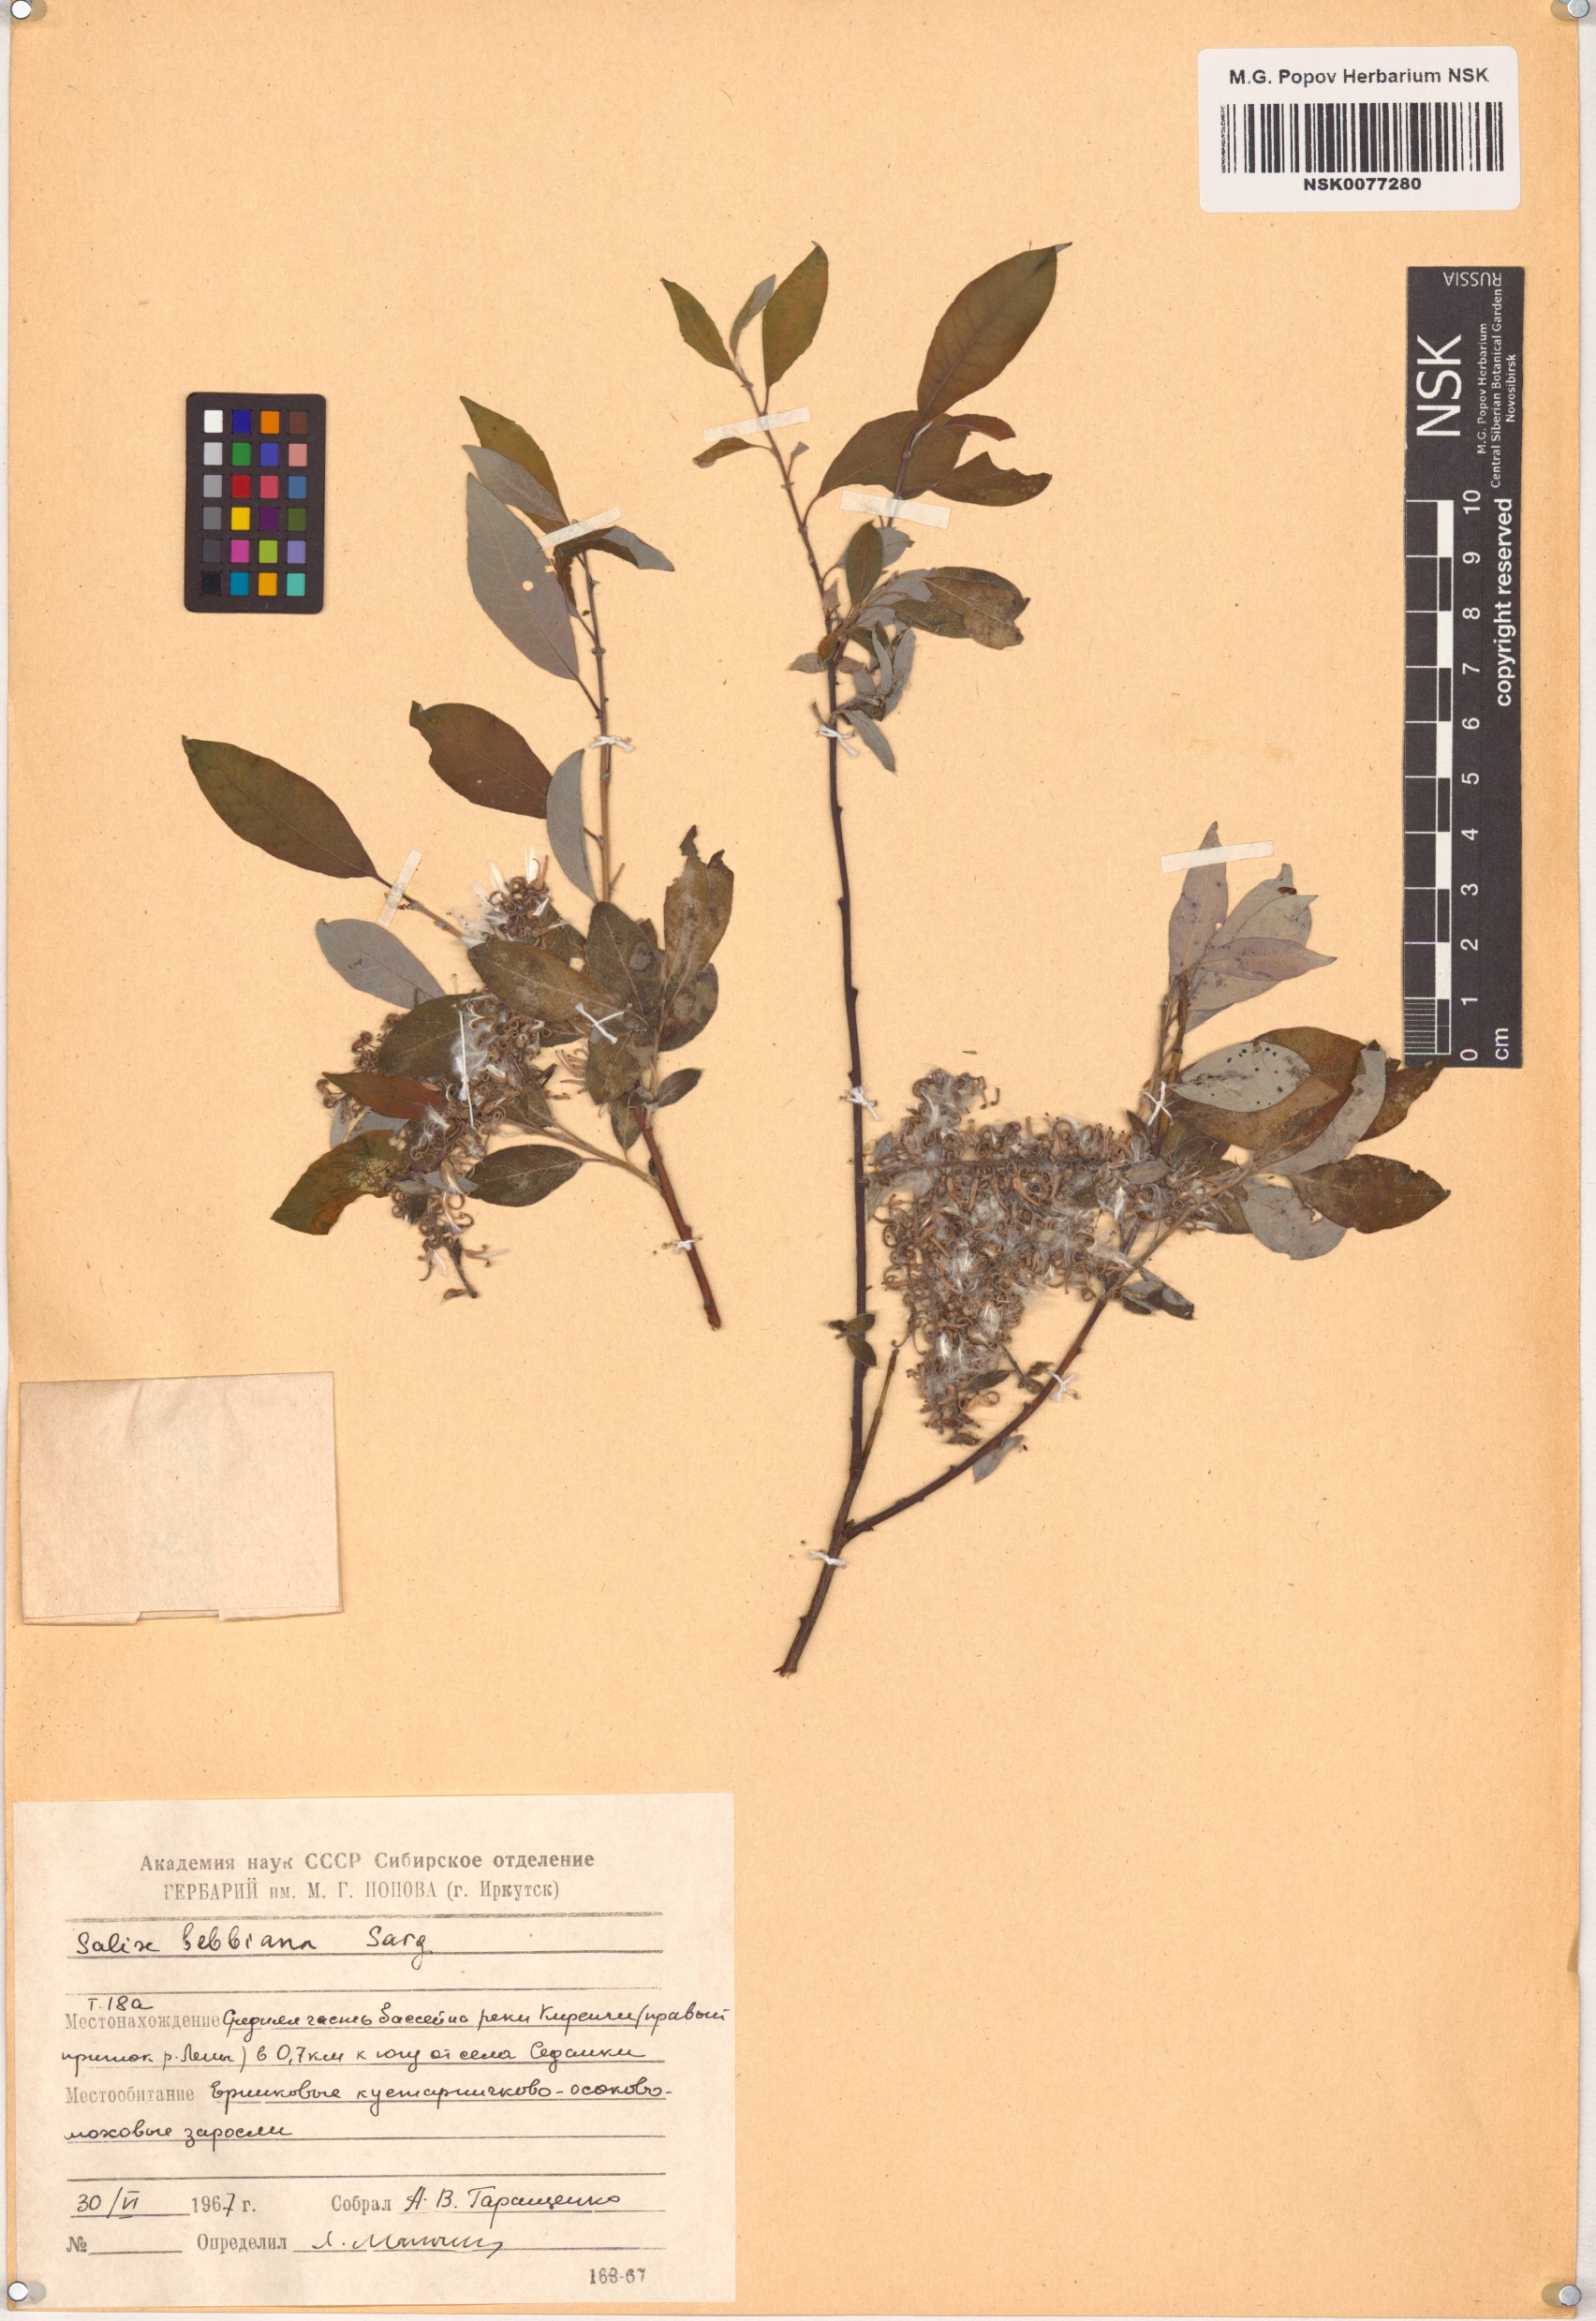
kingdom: Plantae
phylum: Tracheophyta
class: Magnoliopsida
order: Malpighiales
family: Salicaceae
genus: Salix
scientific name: Salix bebbiana
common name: Bebb's willow
